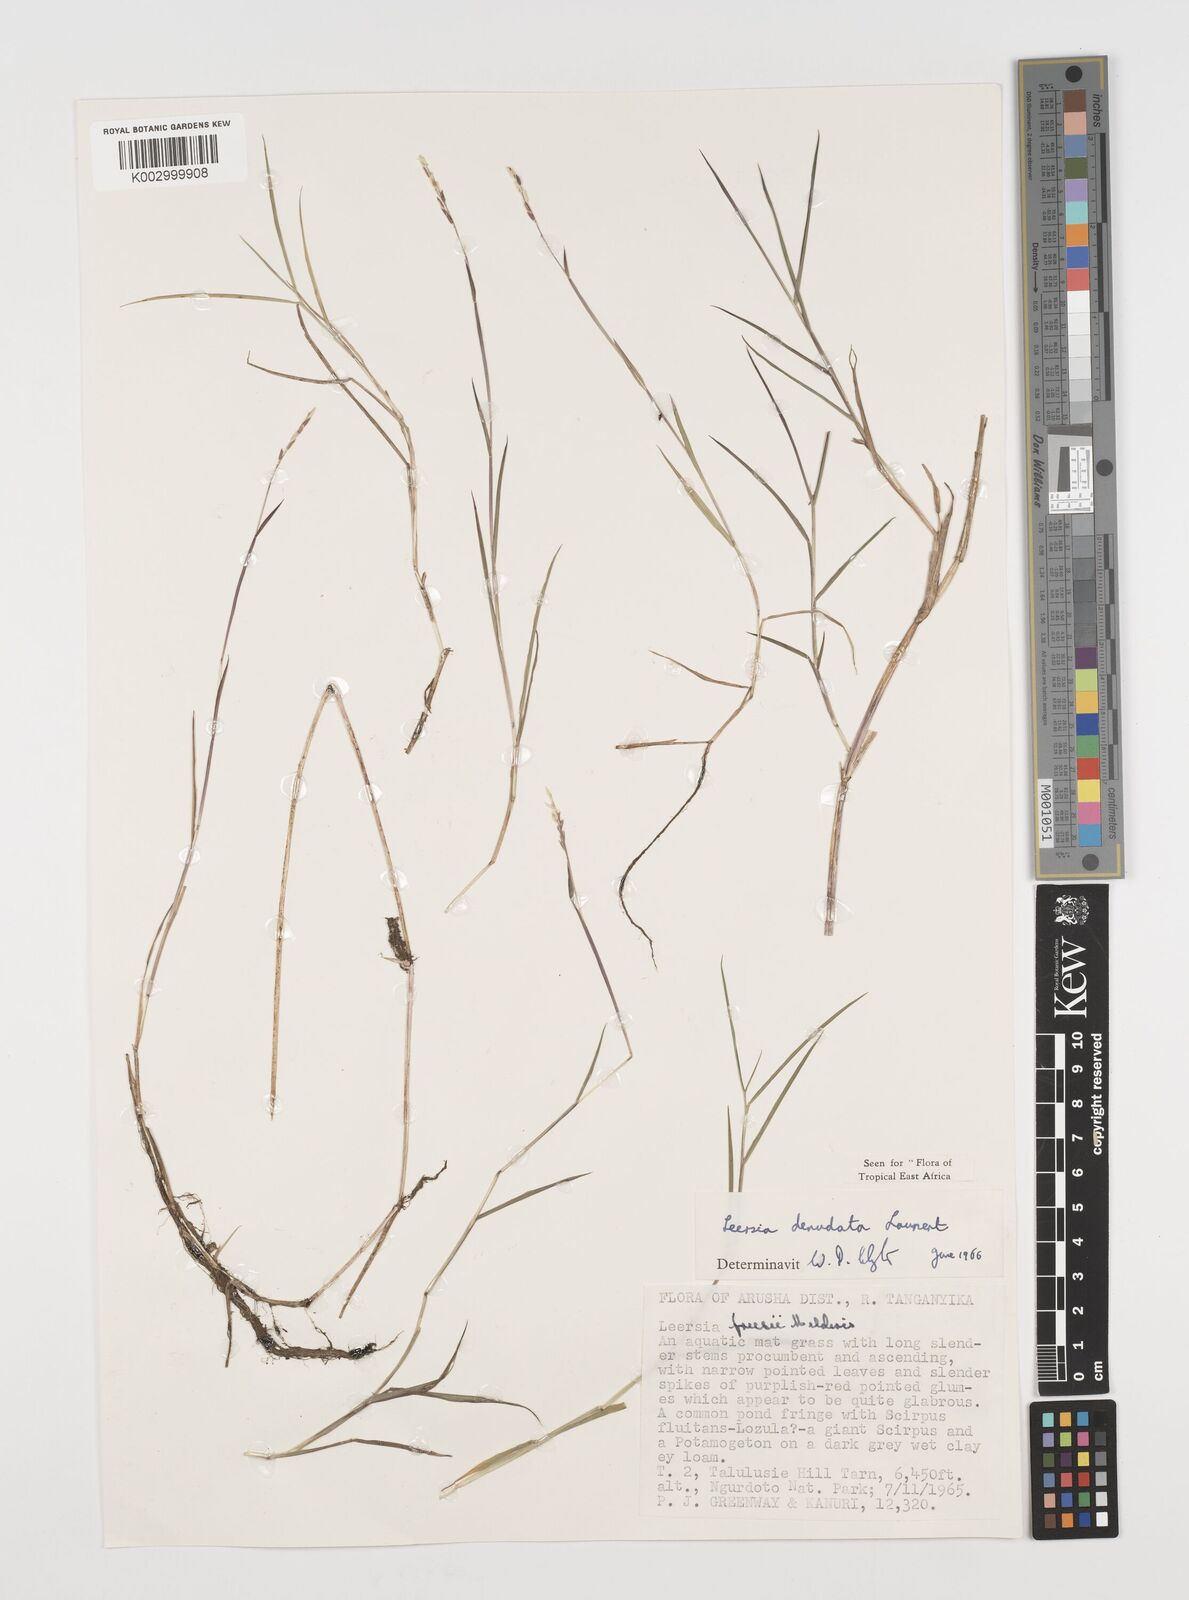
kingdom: Plantae
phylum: Tracheophyta
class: Liliopsida
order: Poales
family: Poaceae
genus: Leersia
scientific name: Leersia denudata
